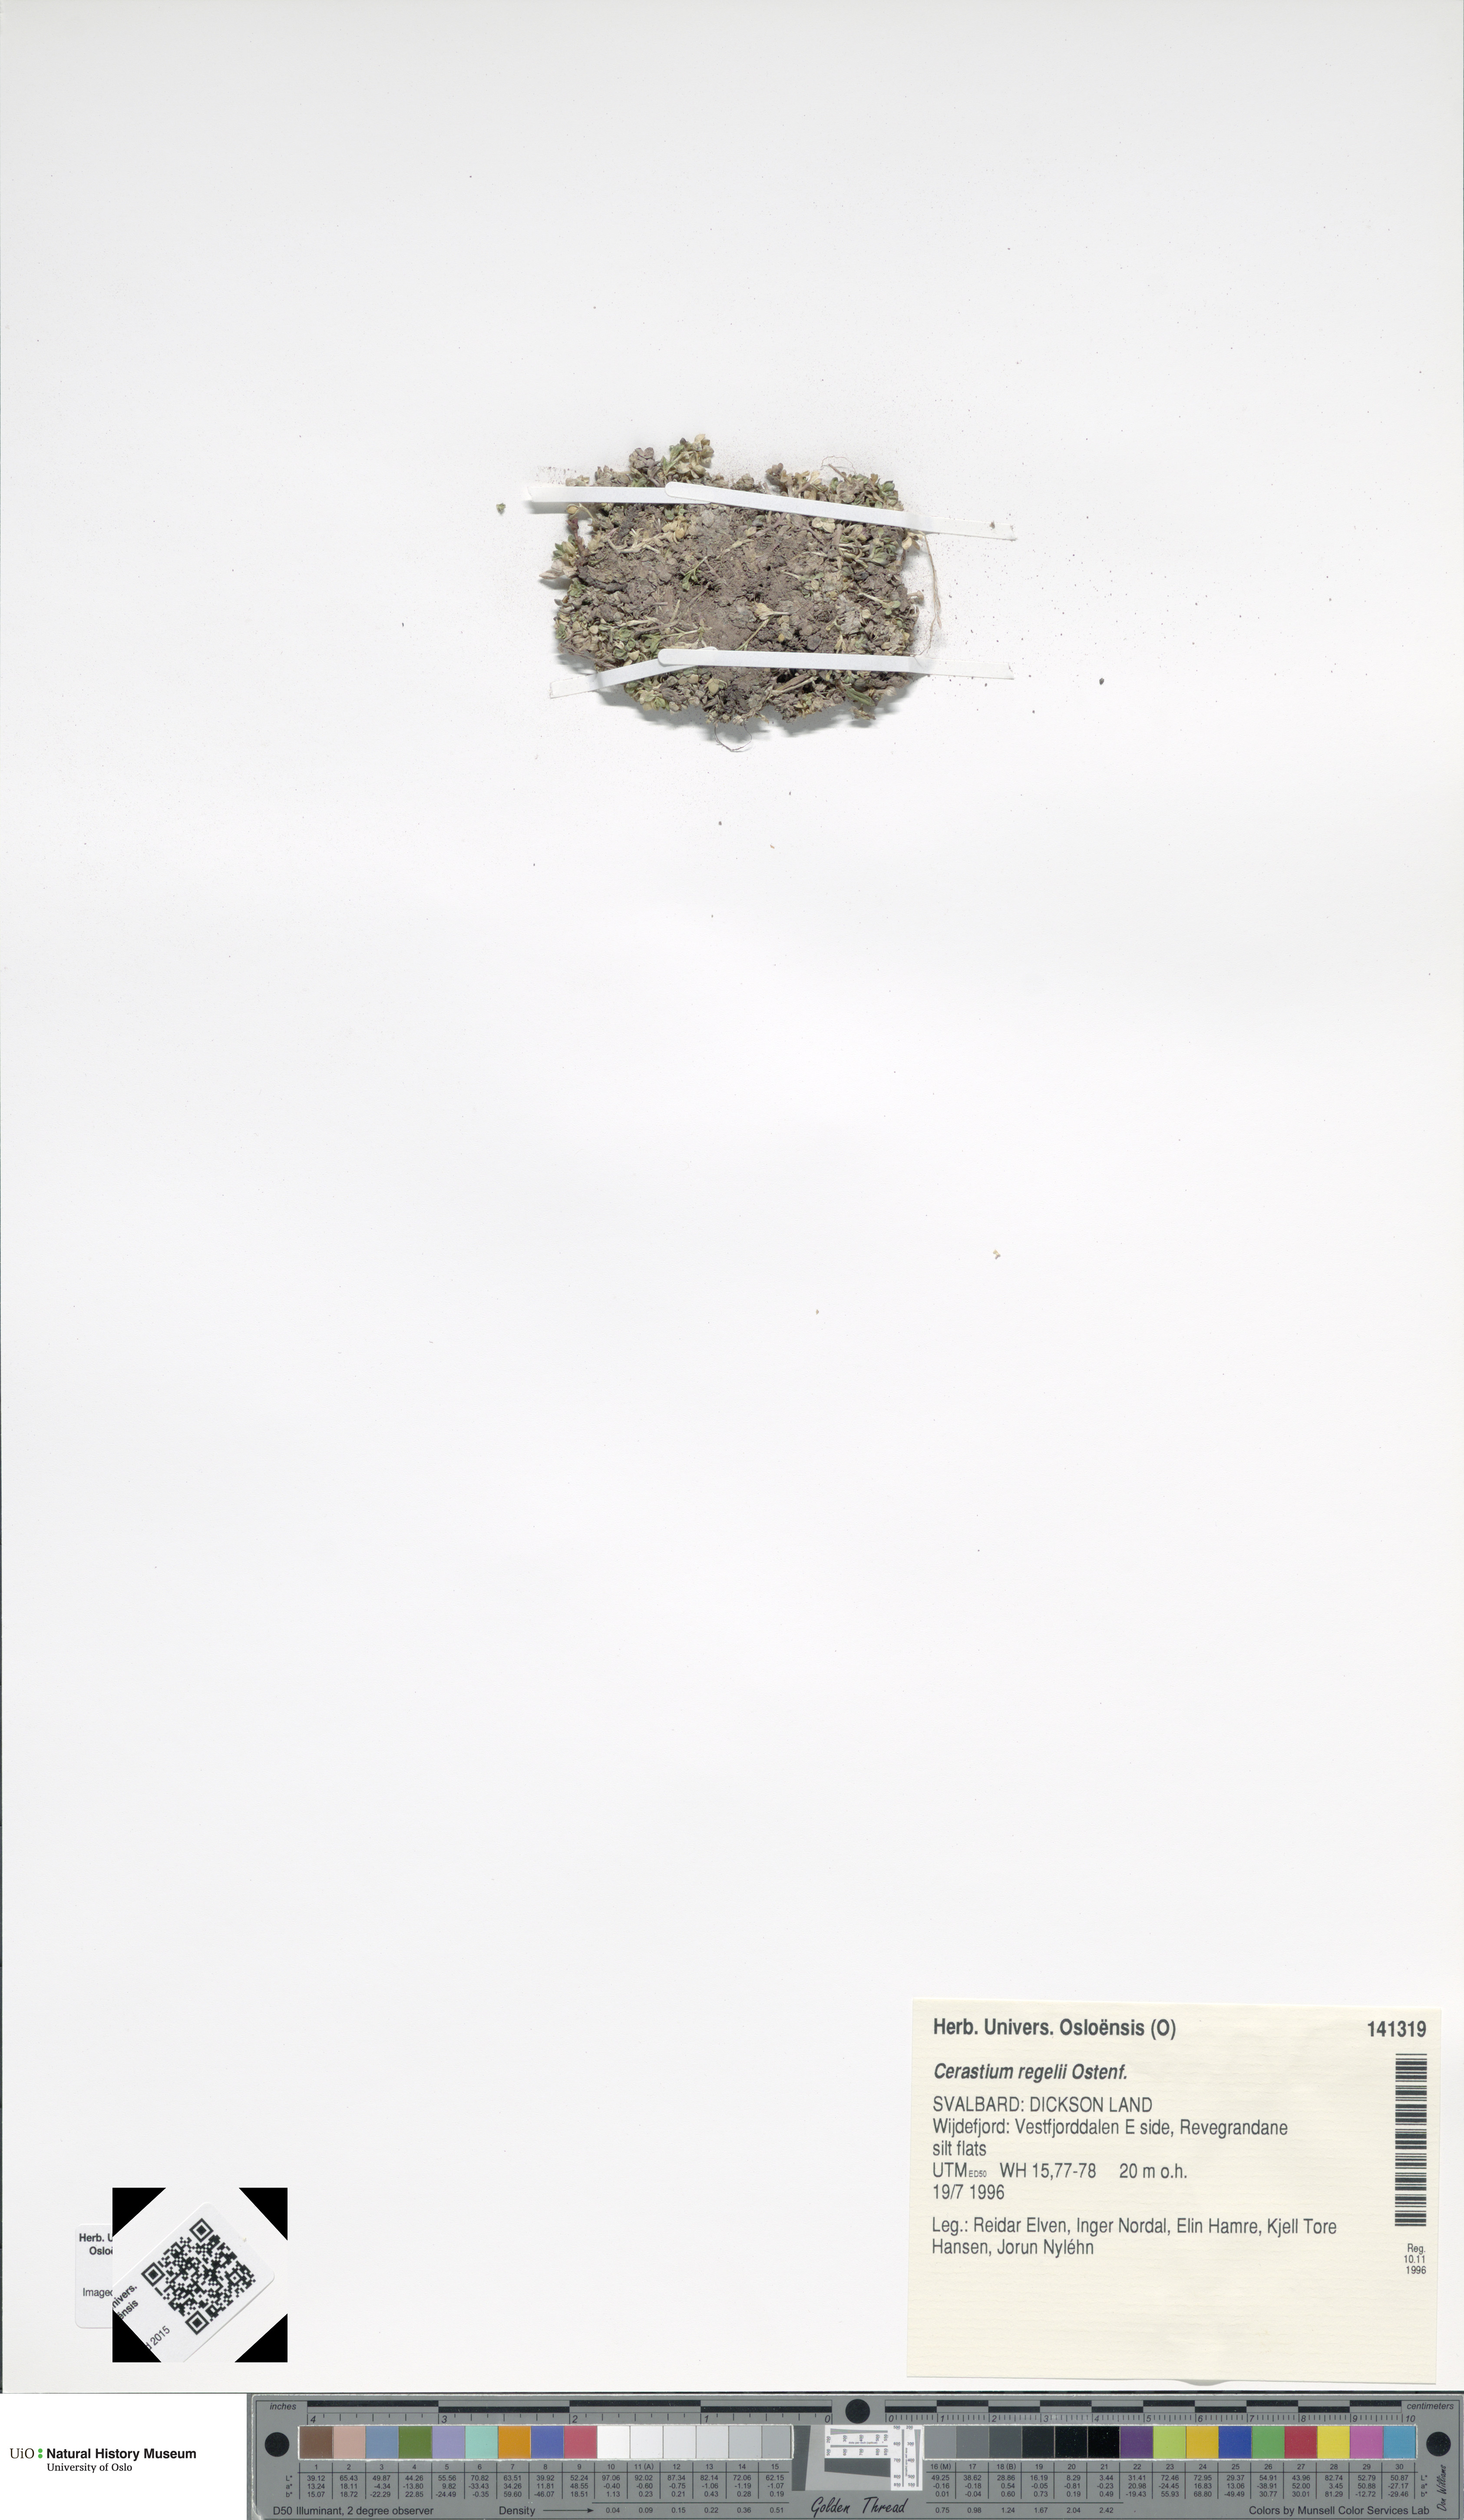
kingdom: Plantae
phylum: Tracheophyta
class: Magnoliopsida
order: Caryophyllales
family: Caryophyllaceae
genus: Cerastium
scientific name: Cerastium regelii
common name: Regel's chickweed
